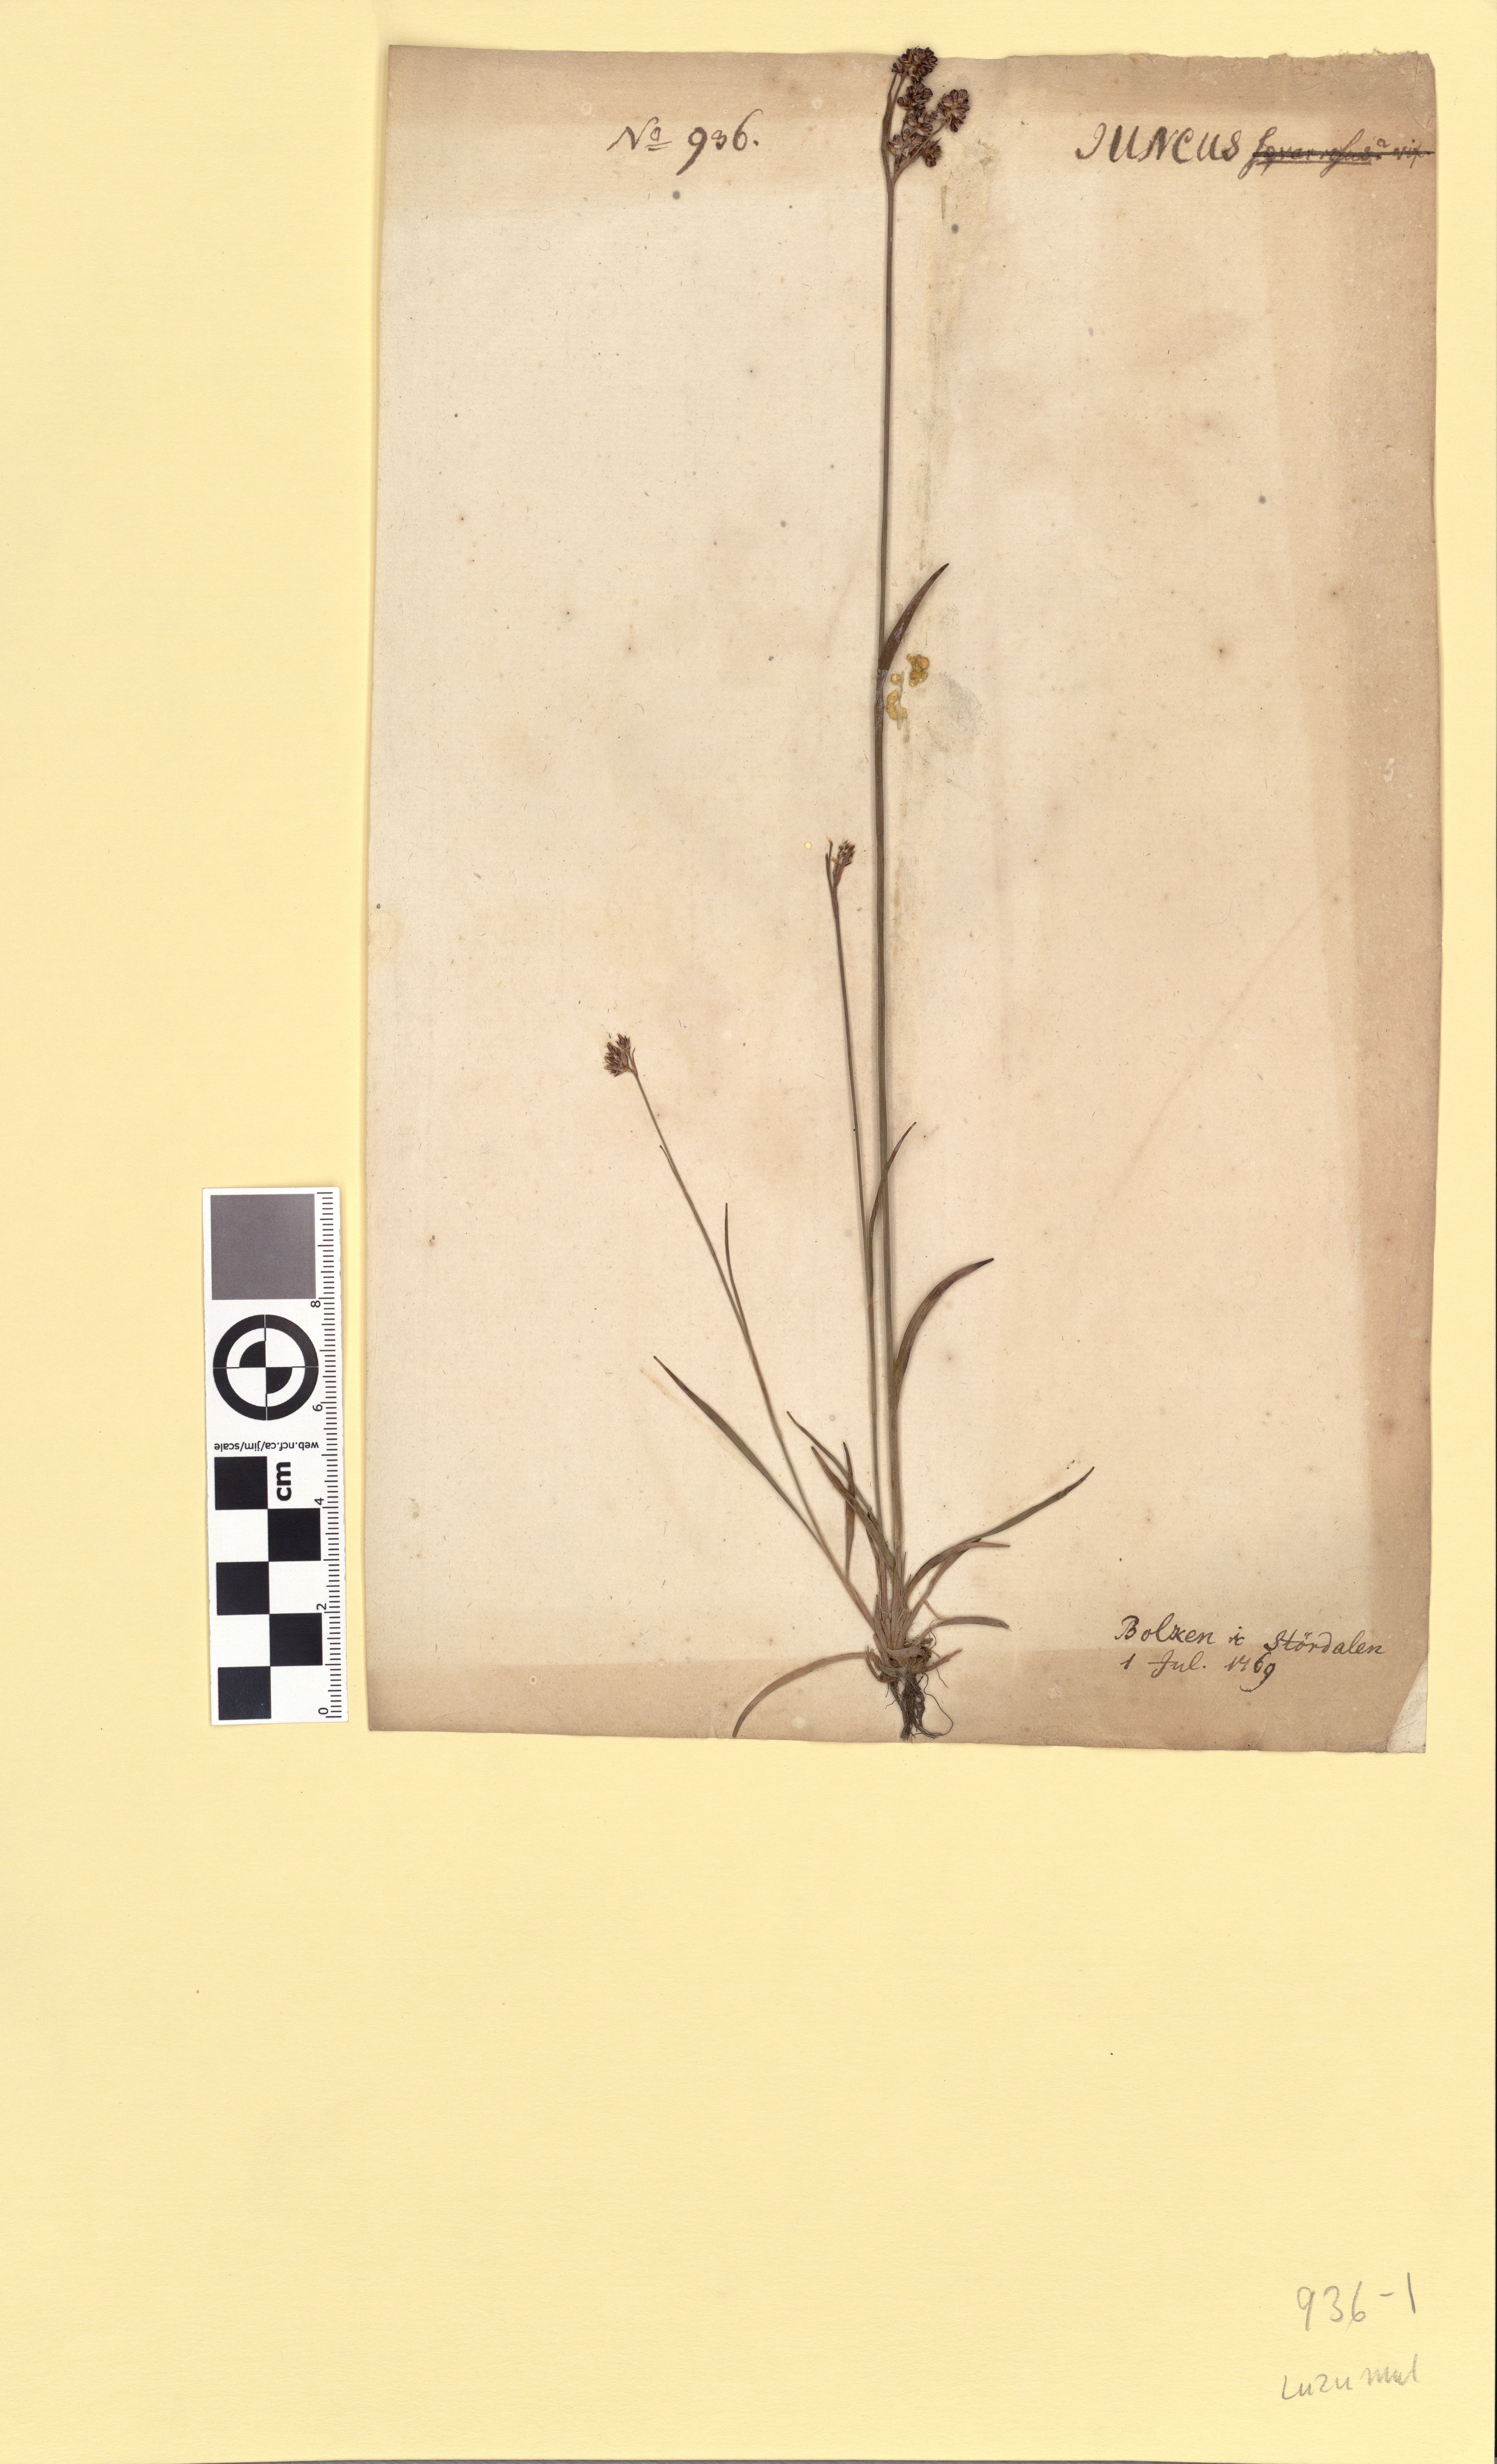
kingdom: Plantae
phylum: Tracheophyta
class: Liliopsida
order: Poales
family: Juncaceae
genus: Luzula
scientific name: Luzula multiflora
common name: Heath wood-rush
